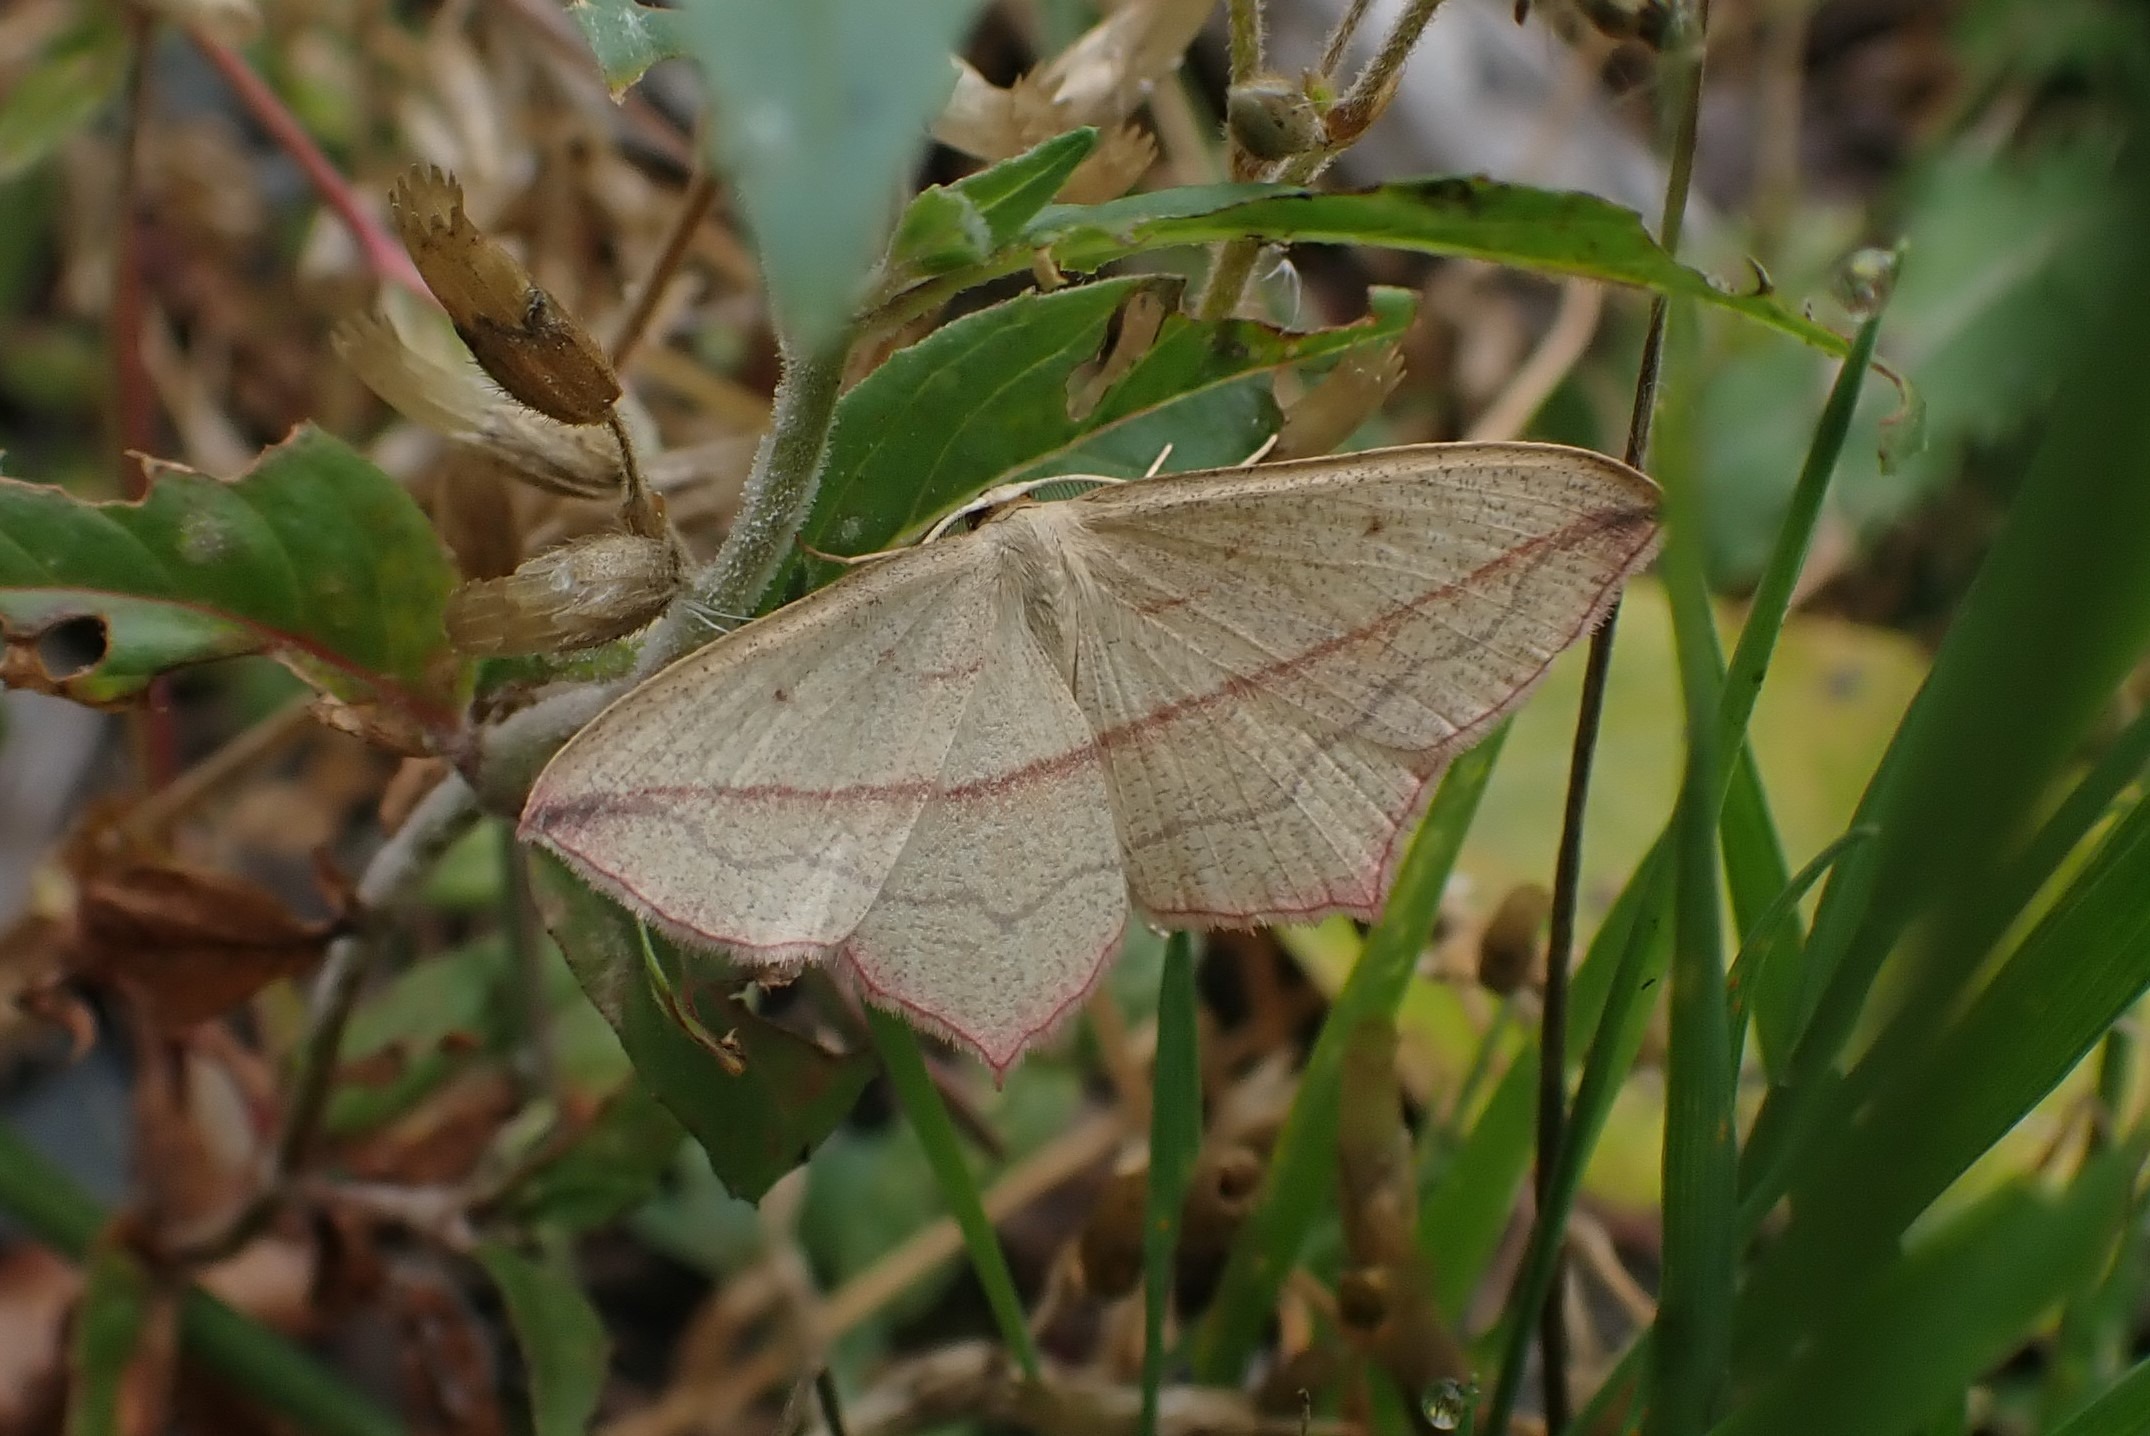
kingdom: Animalia
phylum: Arthropoda
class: Insecta
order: Lepidoptera
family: Geometridae
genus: Timandra
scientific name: Timandra comae
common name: Gul syremåler
